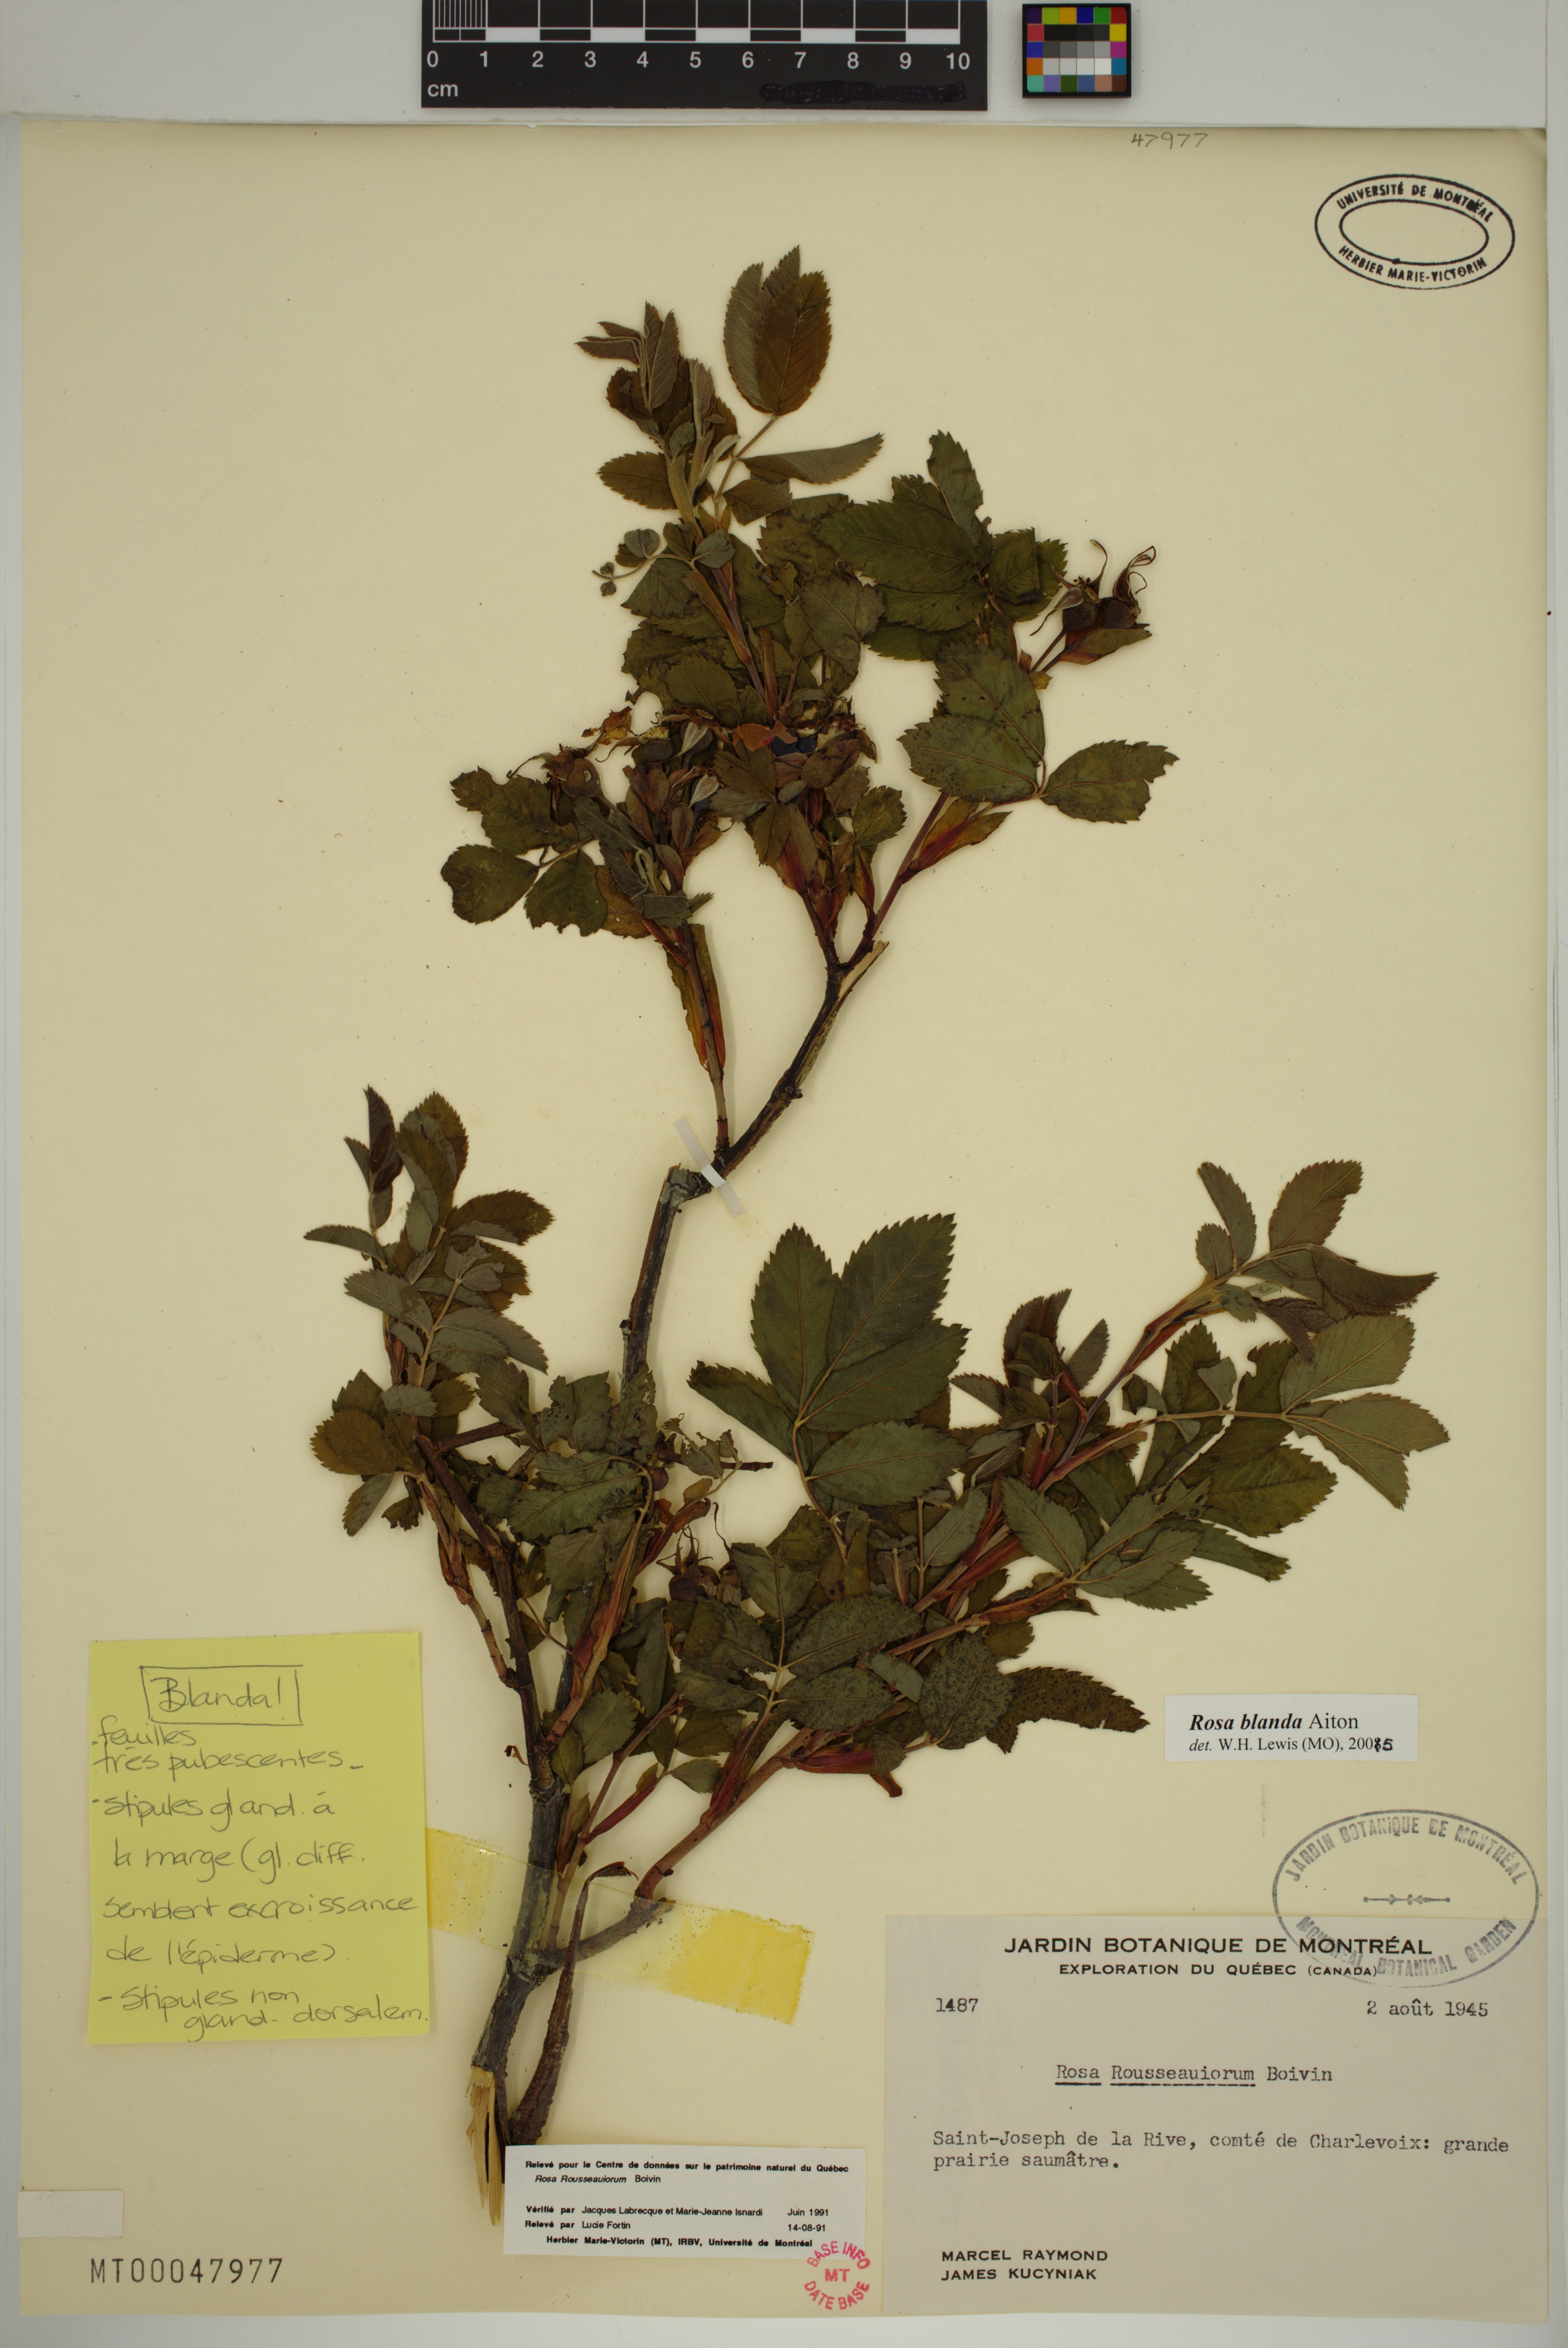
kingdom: Plantae
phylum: Tracheophyta
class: Magnoliopsida
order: Rosales
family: Rosaceae
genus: Rosa
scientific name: Rosa blanda
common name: Smooth rose
